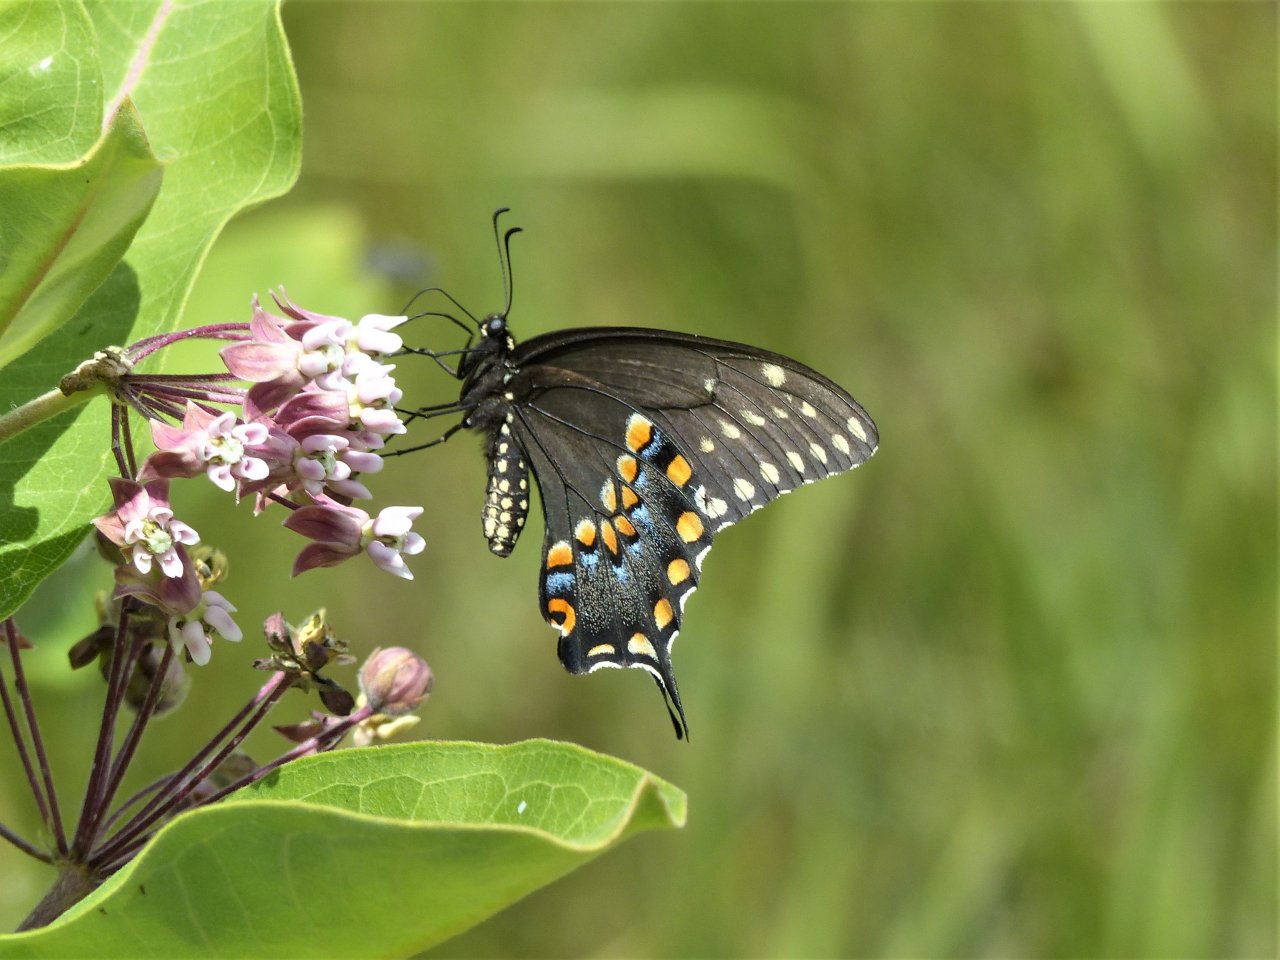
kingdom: Animalia
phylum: Arthropoda
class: Insecta
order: Lepidoptera
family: Papilionidae
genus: Papilio
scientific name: Papilio polyxenes
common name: Black Swallowtail
